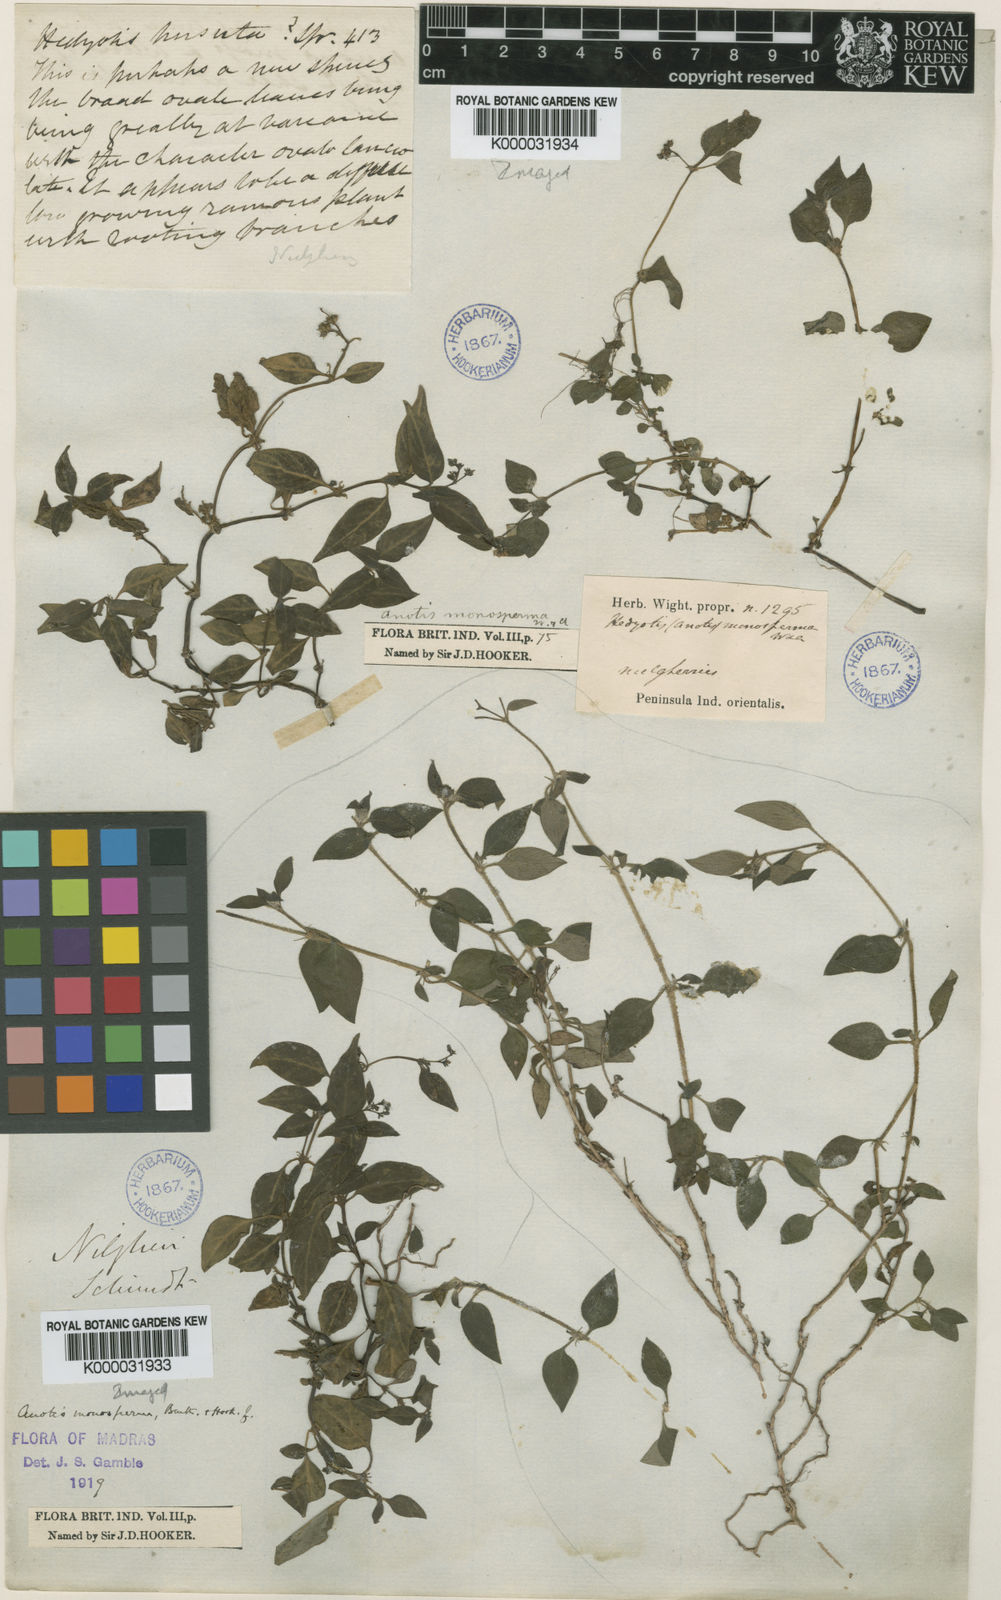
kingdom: Plantae
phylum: Tracheophyta
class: Magnoliopsida
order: Gentianales
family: Rubiaceae
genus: Neanotis
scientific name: Neanotis monosperma
